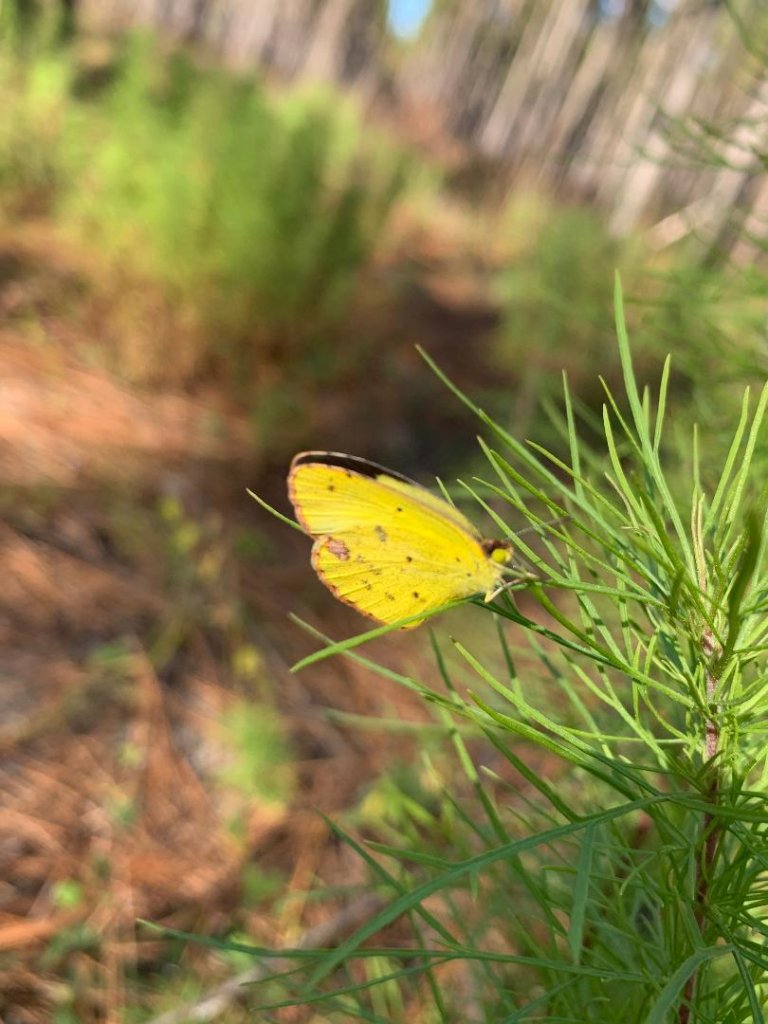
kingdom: Animalia
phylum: Arthropoda
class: Insecta
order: Lepidoptera
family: Pieridae
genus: Pyrisitia
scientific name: Pyrisitia lisa
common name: Little Yellow
